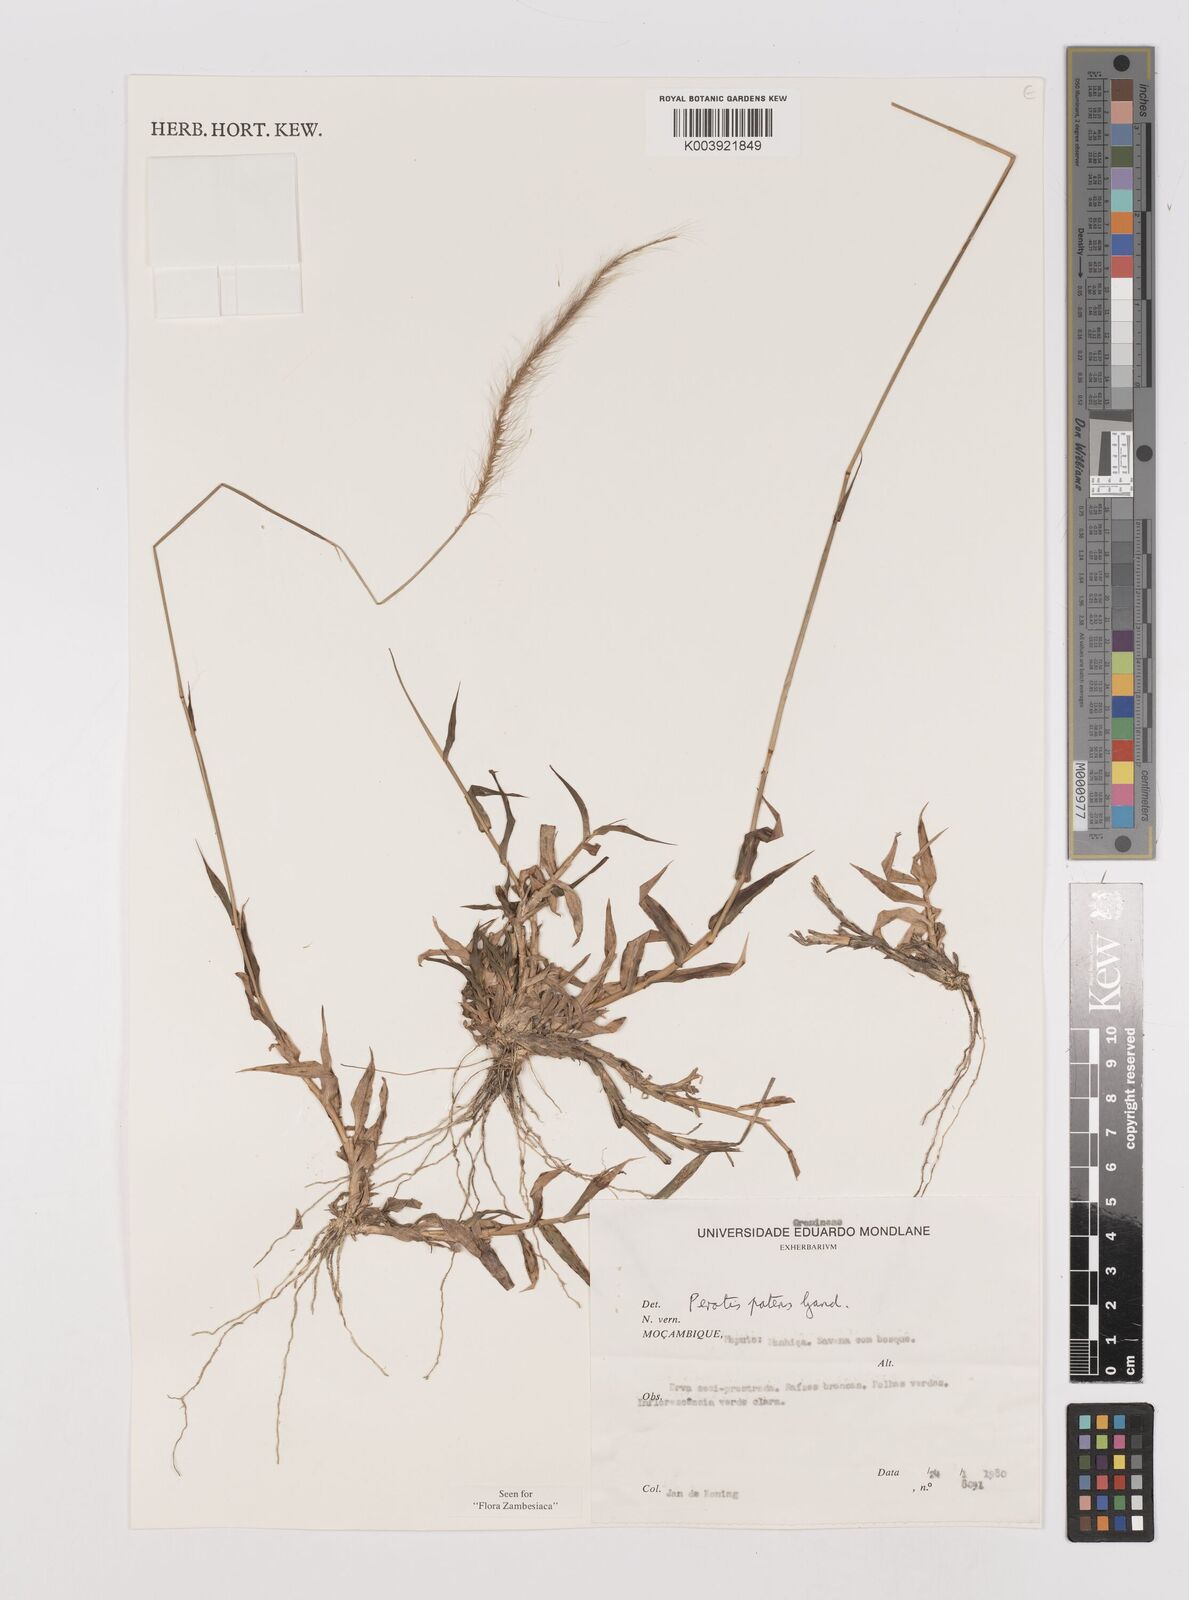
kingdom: Plantae
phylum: Tracheophyta
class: Liliopsida
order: Poales
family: Poaceae
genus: Perotis
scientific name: Perotis patens
